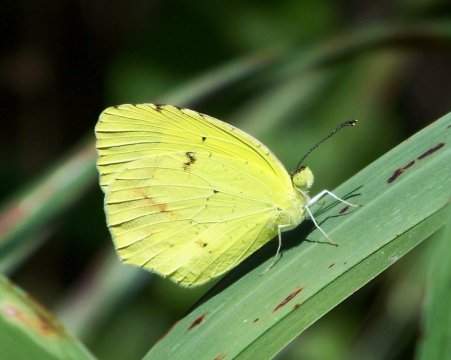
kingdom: Animalia
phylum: Arthropoda
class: Insecta
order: Lepidoptera
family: Pieridae
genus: Abaeis
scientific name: Abaeis nicippe
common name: Sleepy Orange
